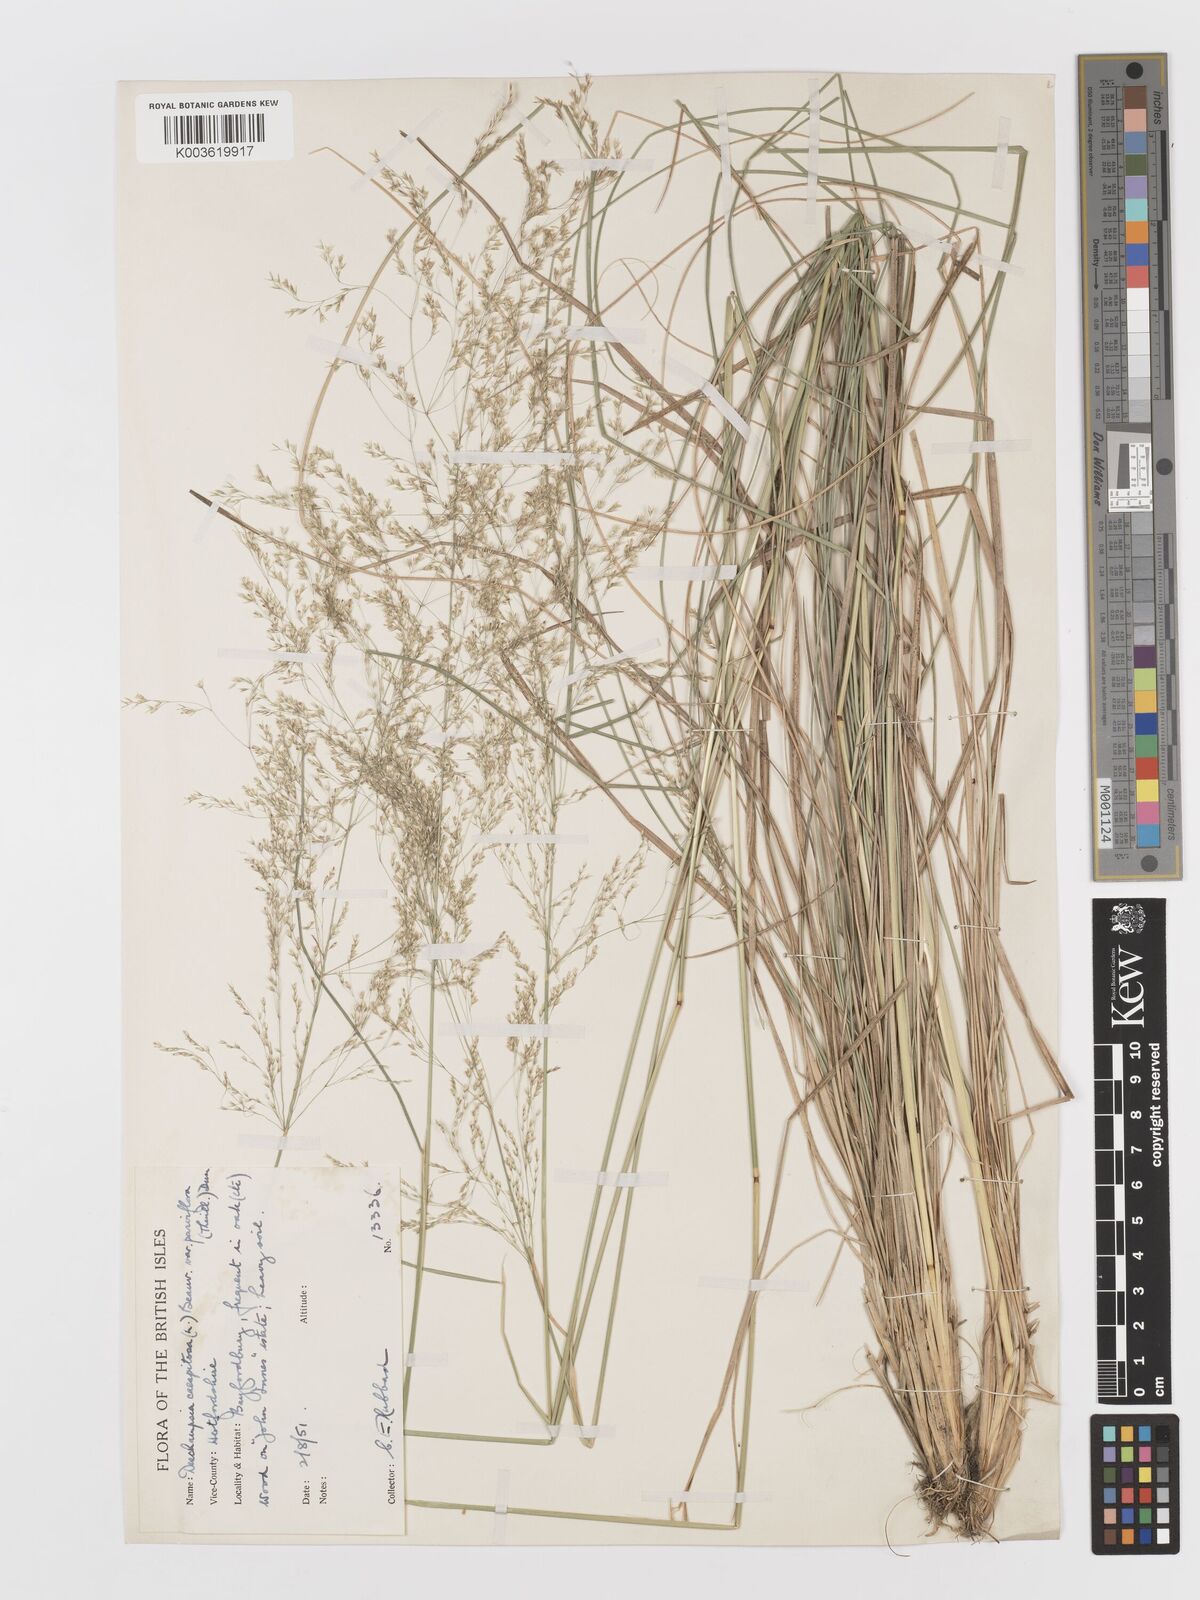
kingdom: Plantae
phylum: Tracheophyta
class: Liliopsida
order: Poales
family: Poaceae
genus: Deschampsia
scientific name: Deschampsia cespitosa
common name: Tufted hair-grass
